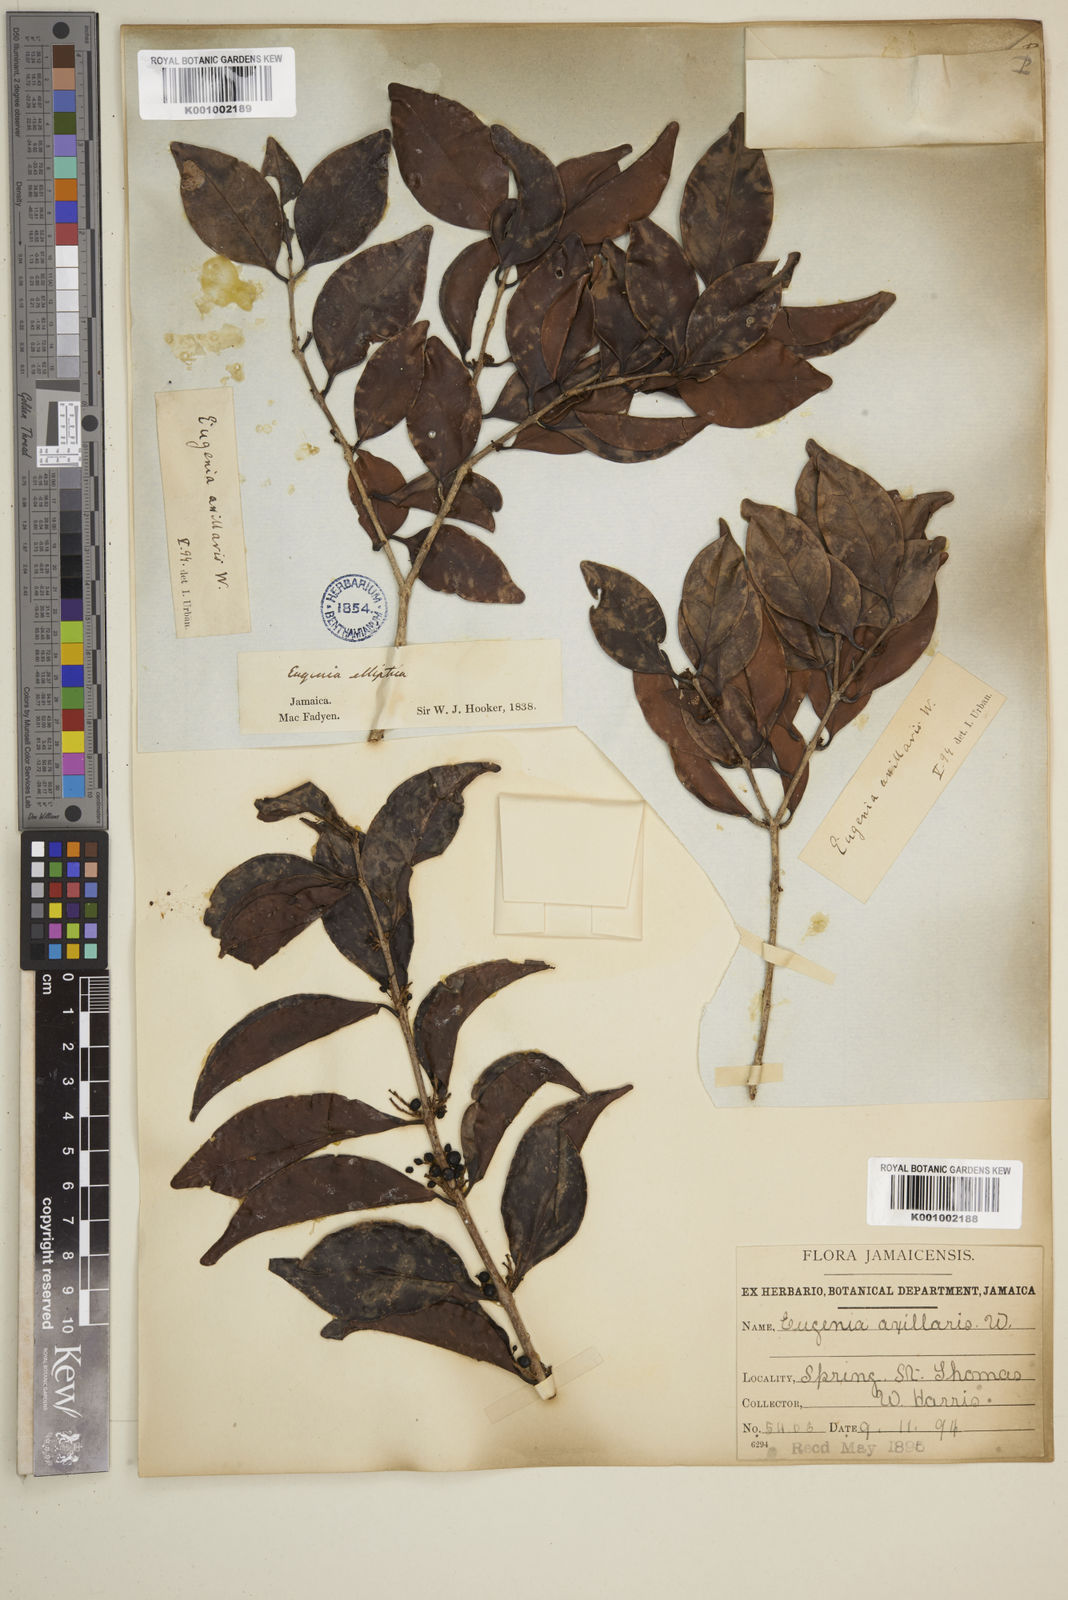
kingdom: Plantae
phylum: Tracheophyta
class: Magnoliopsida
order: Myrtales
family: Myrtaceae
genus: Eugenia
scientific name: Eugenia axillaris
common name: Choaky berry
